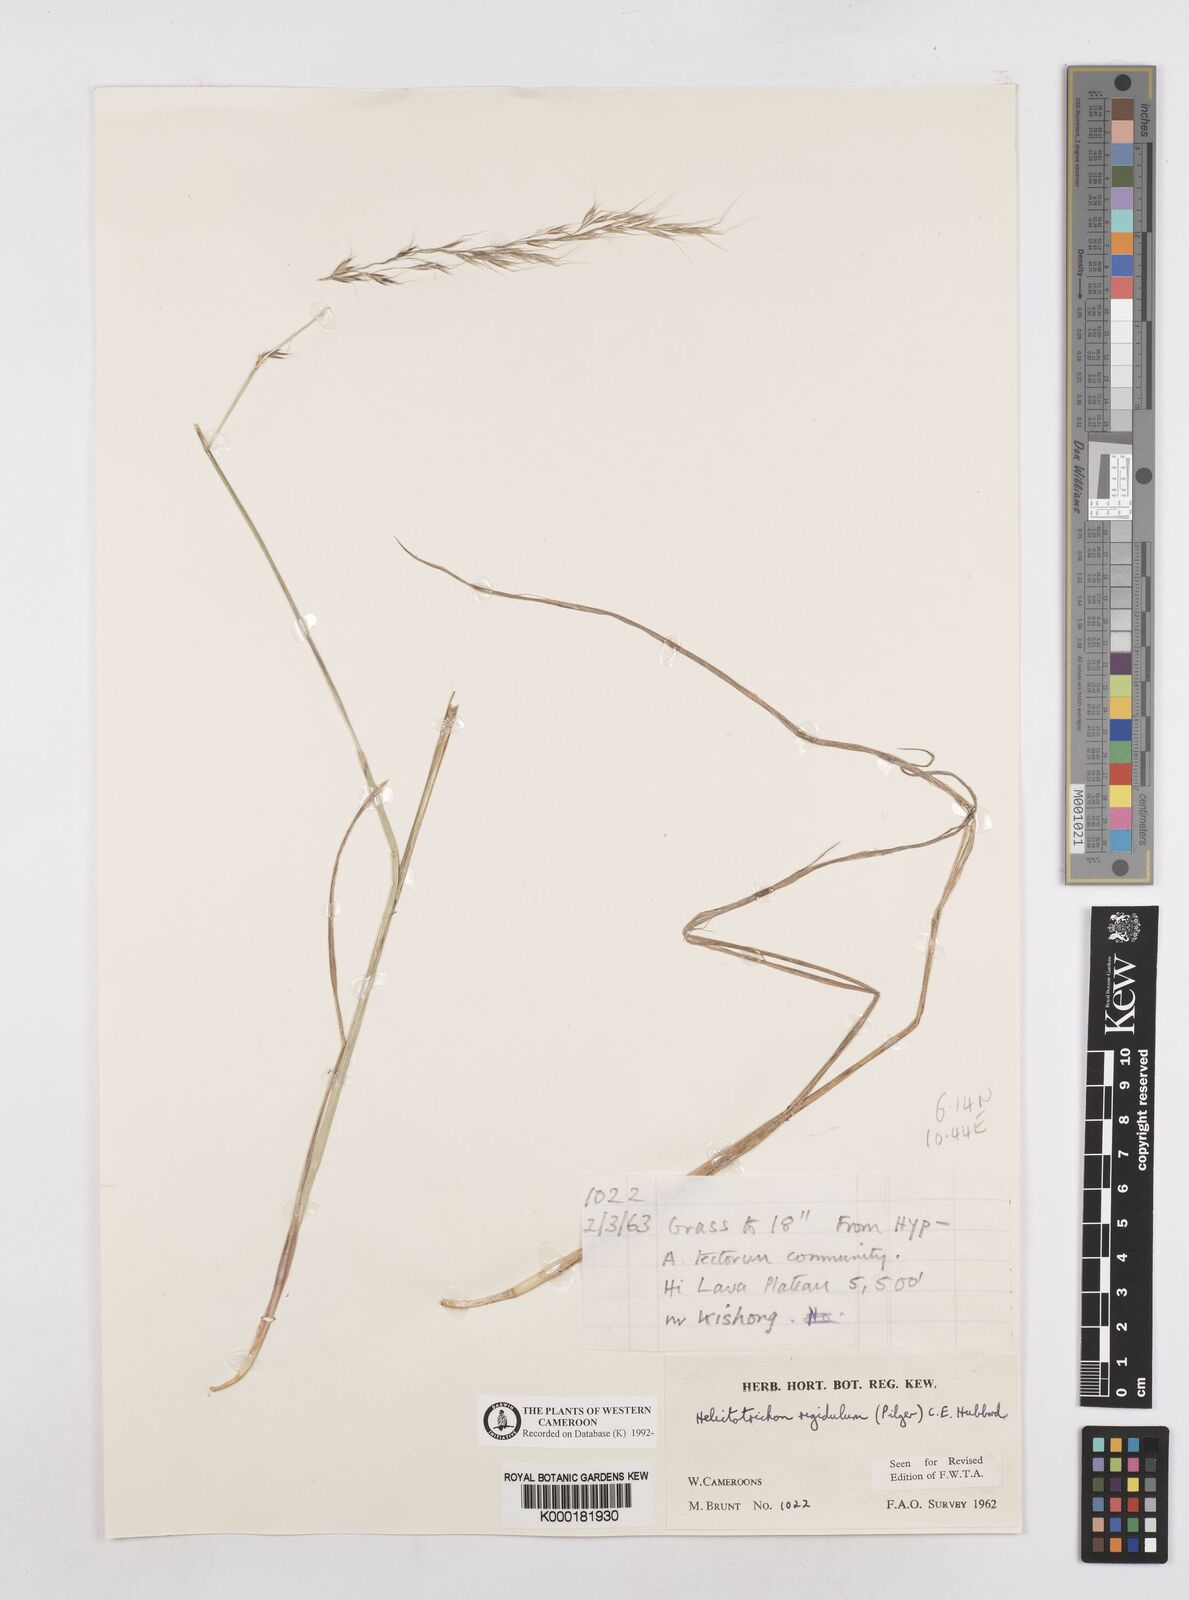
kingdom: Plantae
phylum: Tracheophyta
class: Liliopsida
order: Poales
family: Poaceae
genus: Trisetopsis
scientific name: Trisetopsis elongata
